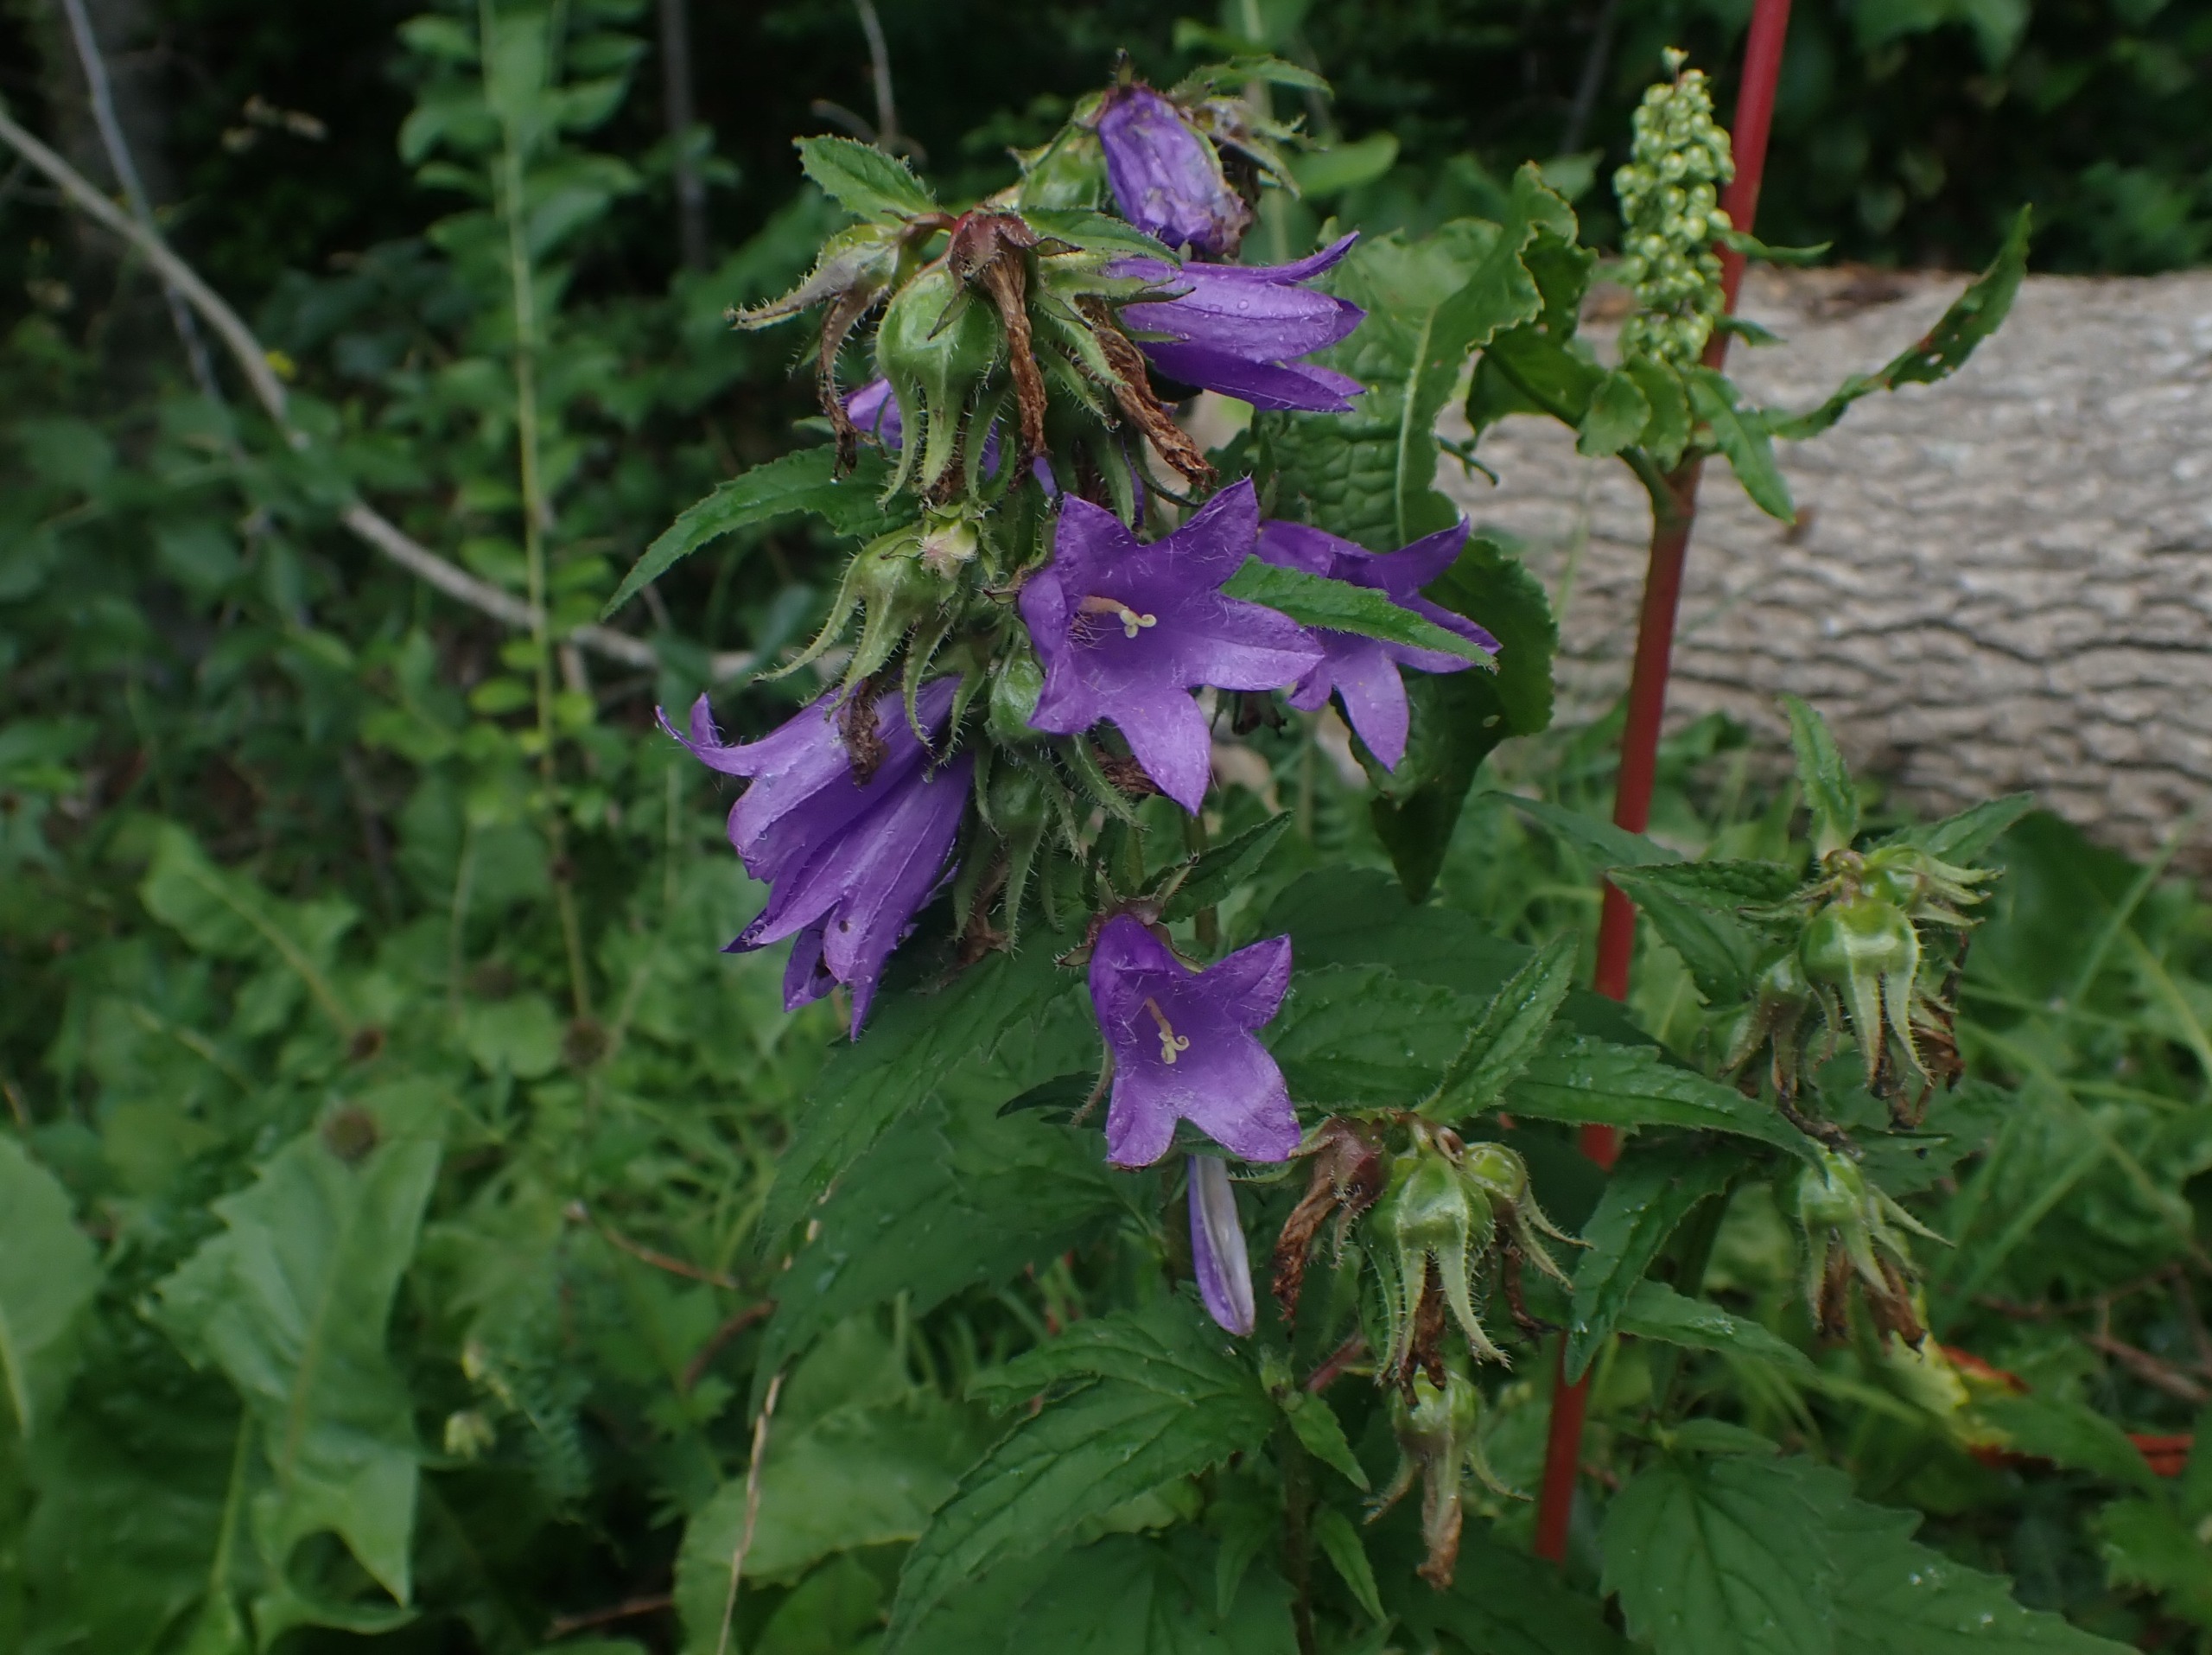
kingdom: Plantae
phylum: Tracheophyta
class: Magnoliopsida
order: Asterales
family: Campanulaceae
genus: Campanula
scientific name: Campanula trachelium
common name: Nælde-klokke
